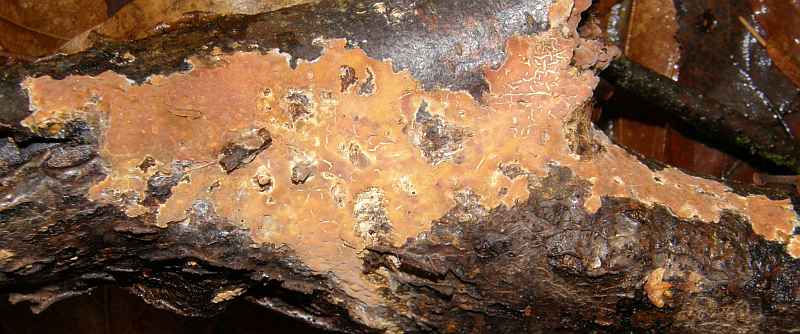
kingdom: Fungi
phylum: Basidiomycota
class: Agaricomycetes
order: Russulales
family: Peniophoraceae
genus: Peniophora
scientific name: Peniophora incarnata
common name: laksefarvet voksskind
